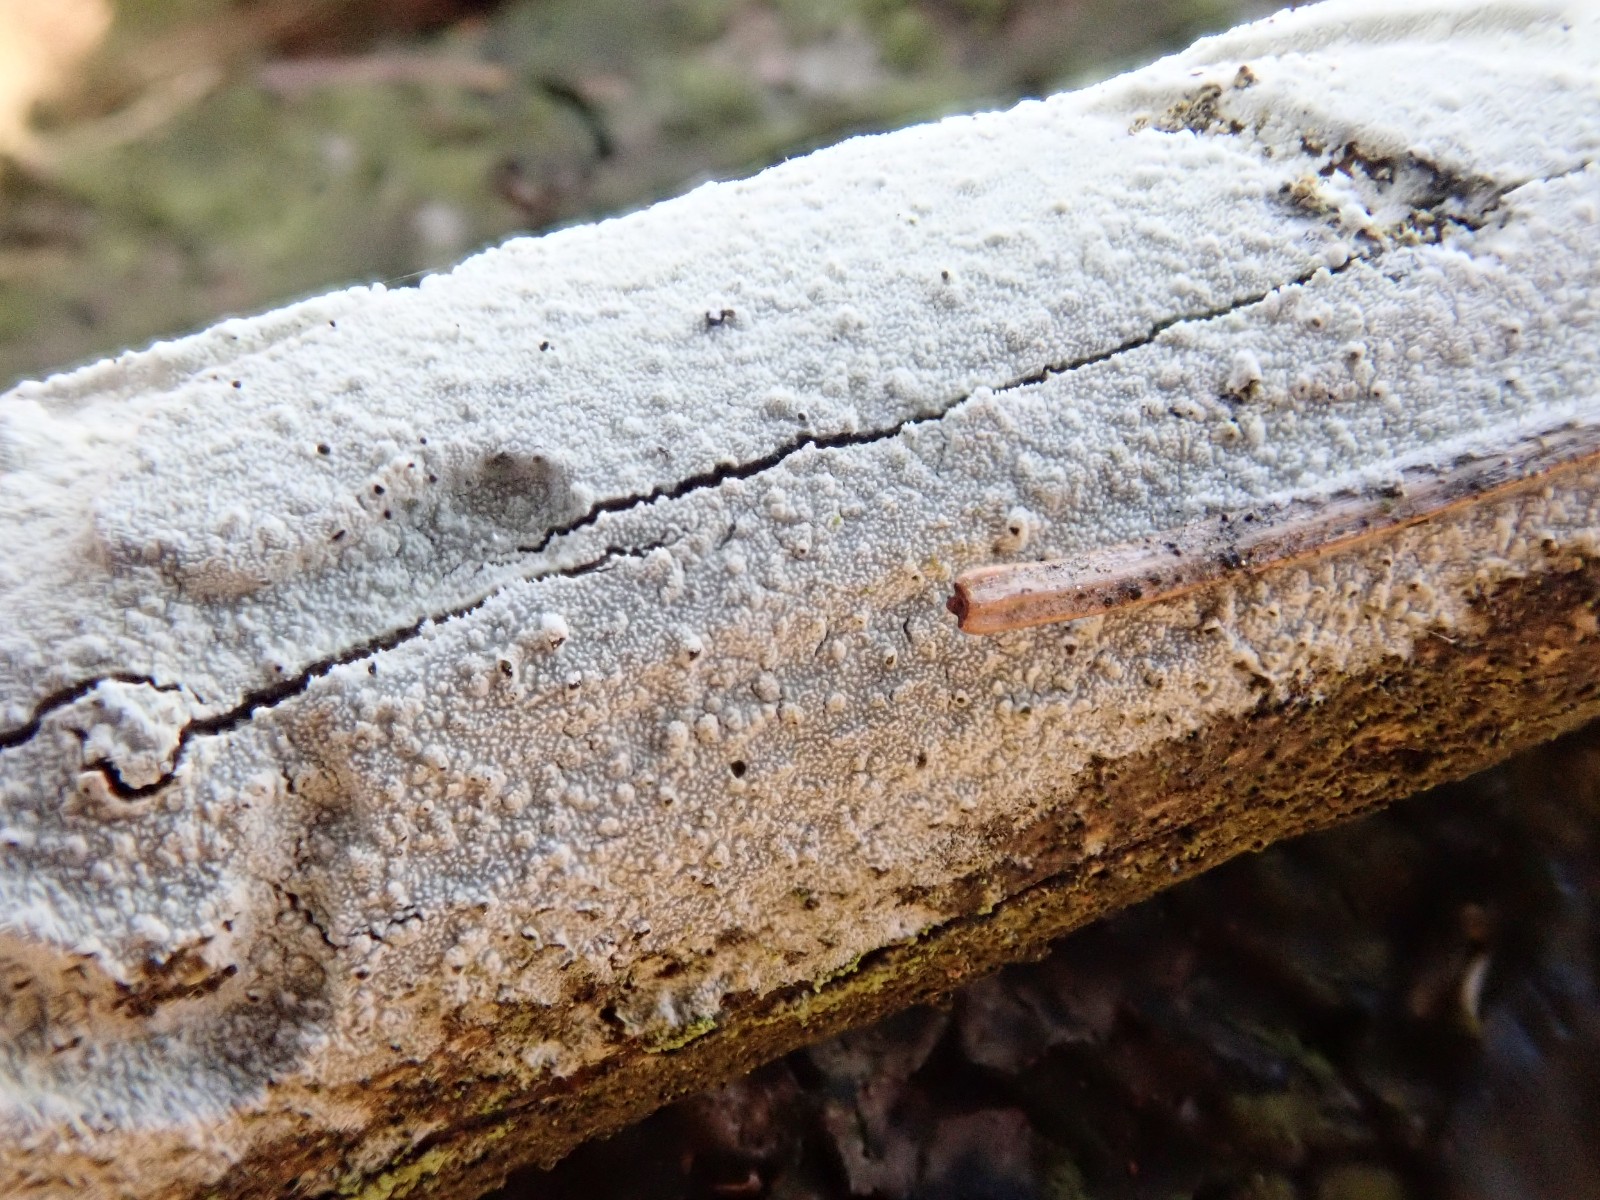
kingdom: Fungi
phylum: Basidiomycota
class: Agaricomycetes
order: Hymenochaetales
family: Schizoporaceae
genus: Xylodon
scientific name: Xylodon
